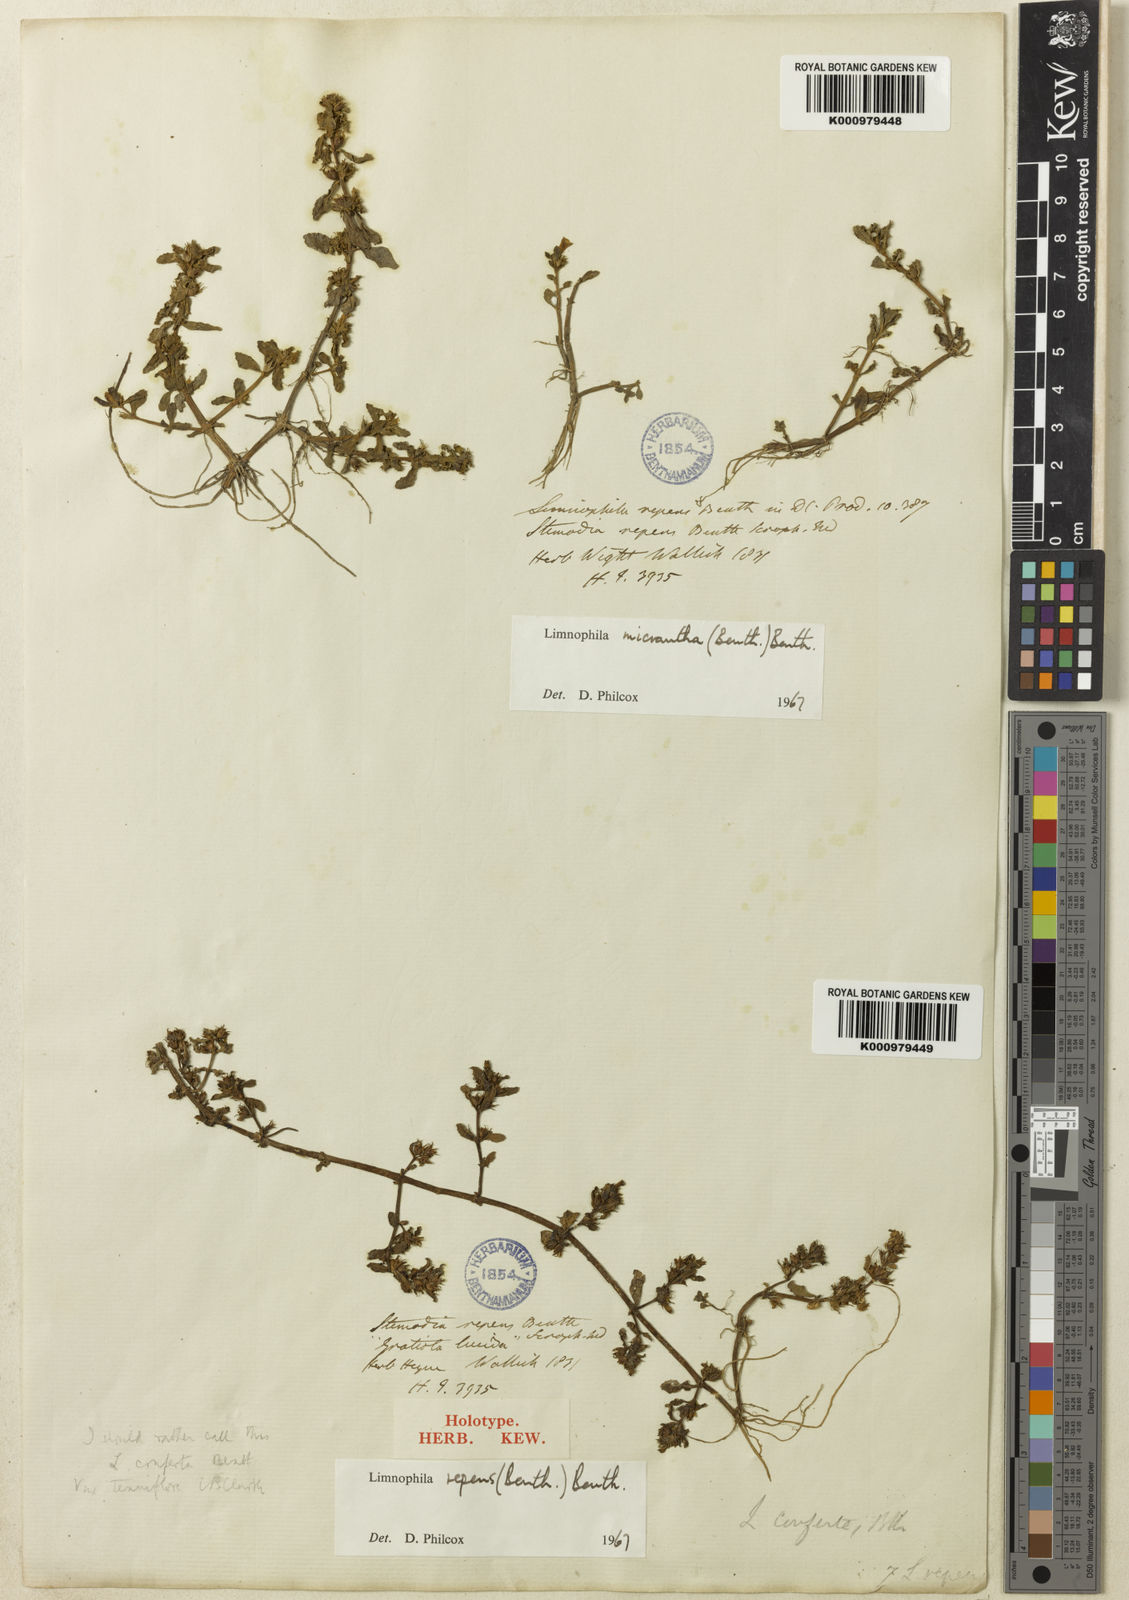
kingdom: Plantae
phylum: Tracheophyta
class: Magnoliopsida
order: Lamiales
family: Plantaginaceae
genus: Limnophila
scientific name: Limnophila repens
